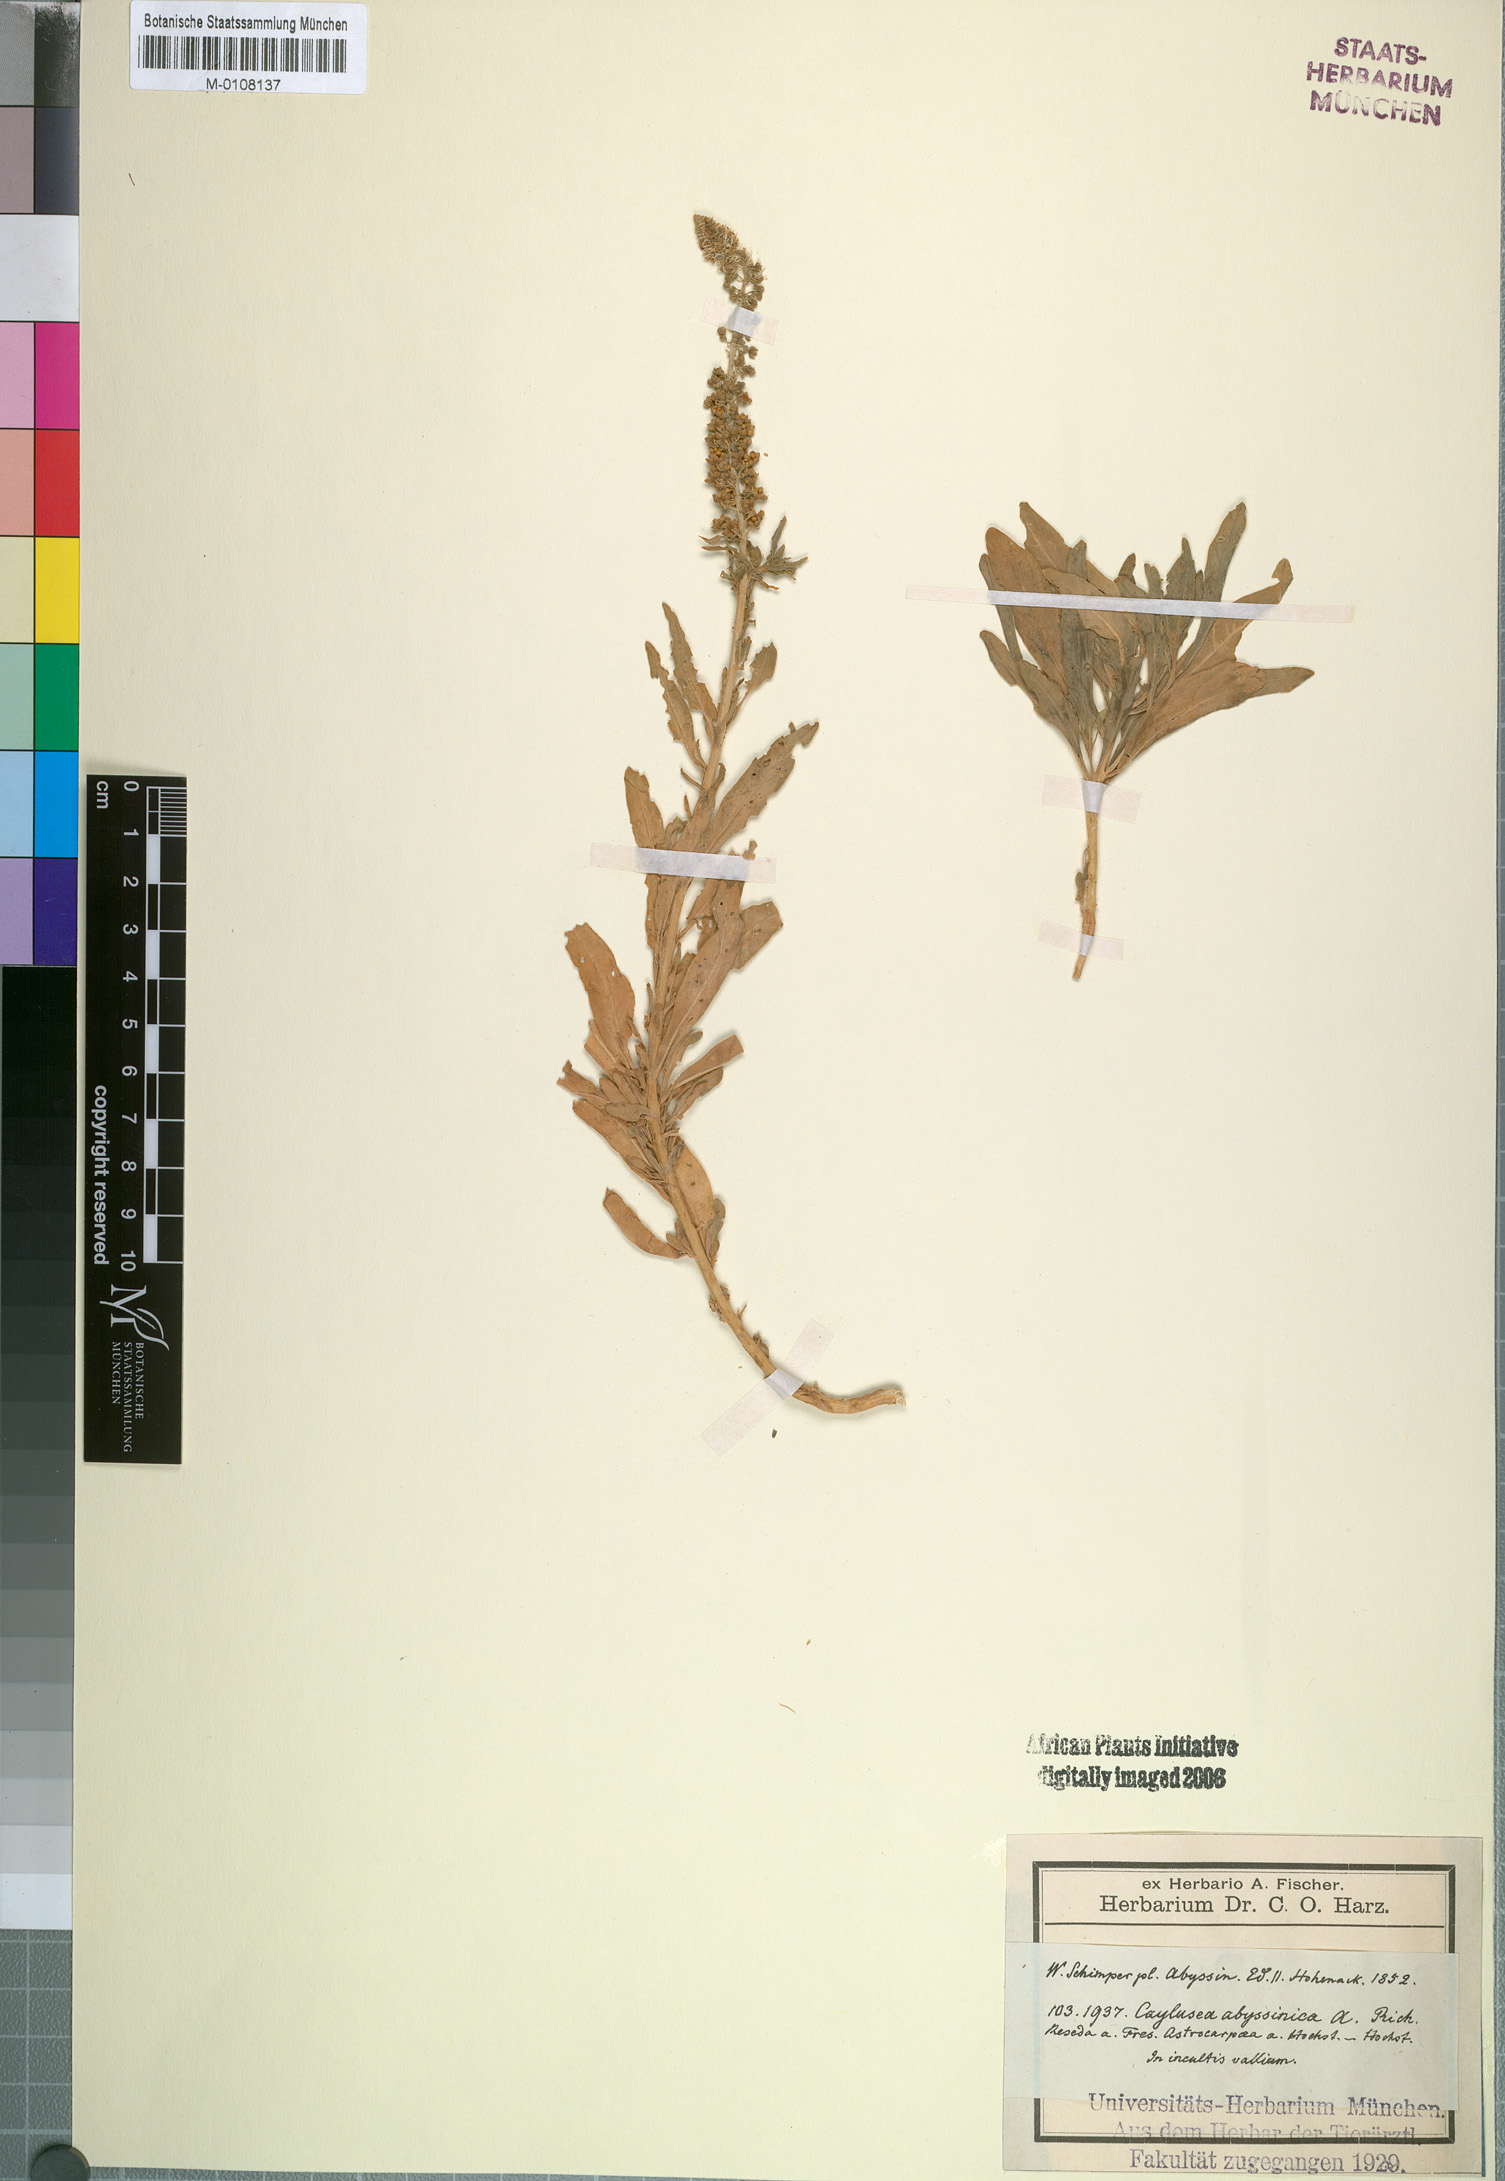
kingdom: Plantae
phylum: Tracheophyta
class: Magnoliopsida
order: Brassicales
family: Resedaceae
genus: Caylusea
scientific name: Caylusea abyssinica
